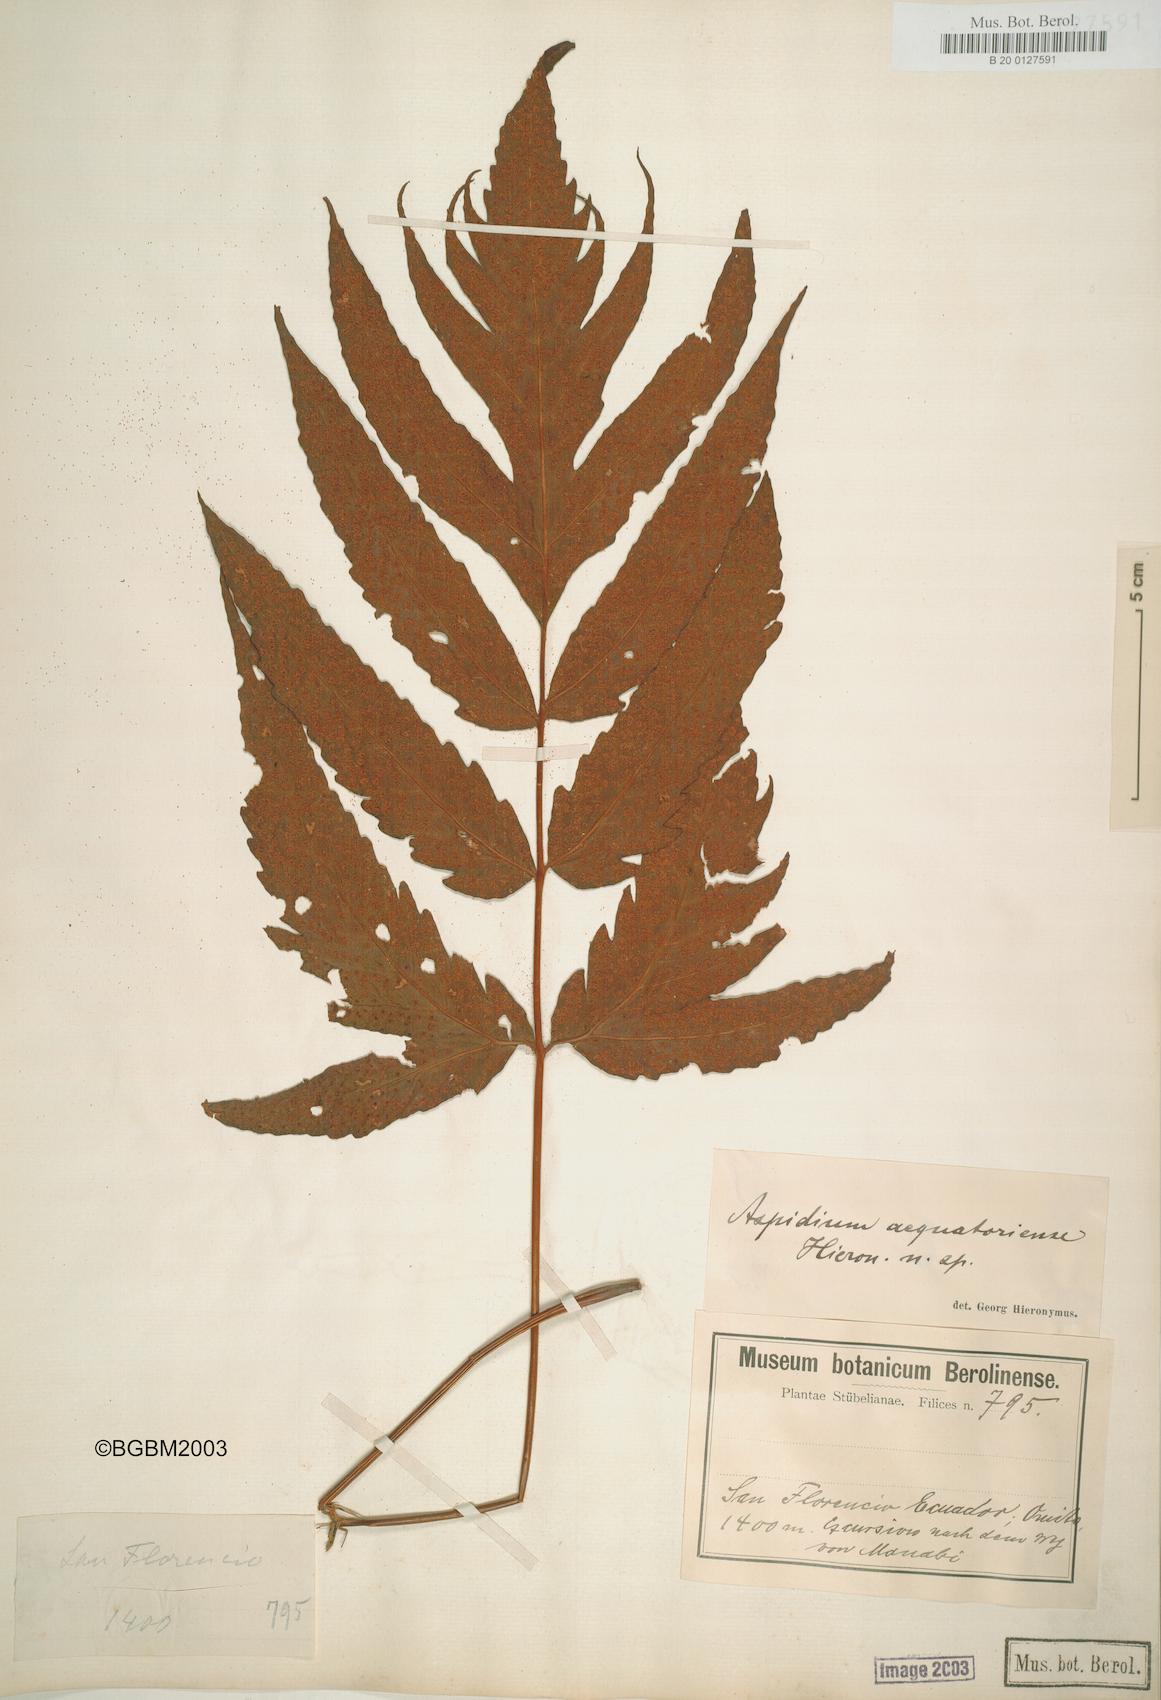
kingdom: Plantae
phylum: Tracheophyta
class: Polypodiopsida
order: Polypodiales
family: Tectariaceae
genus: Tectaria
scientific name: Tectaria aequatoriensis
